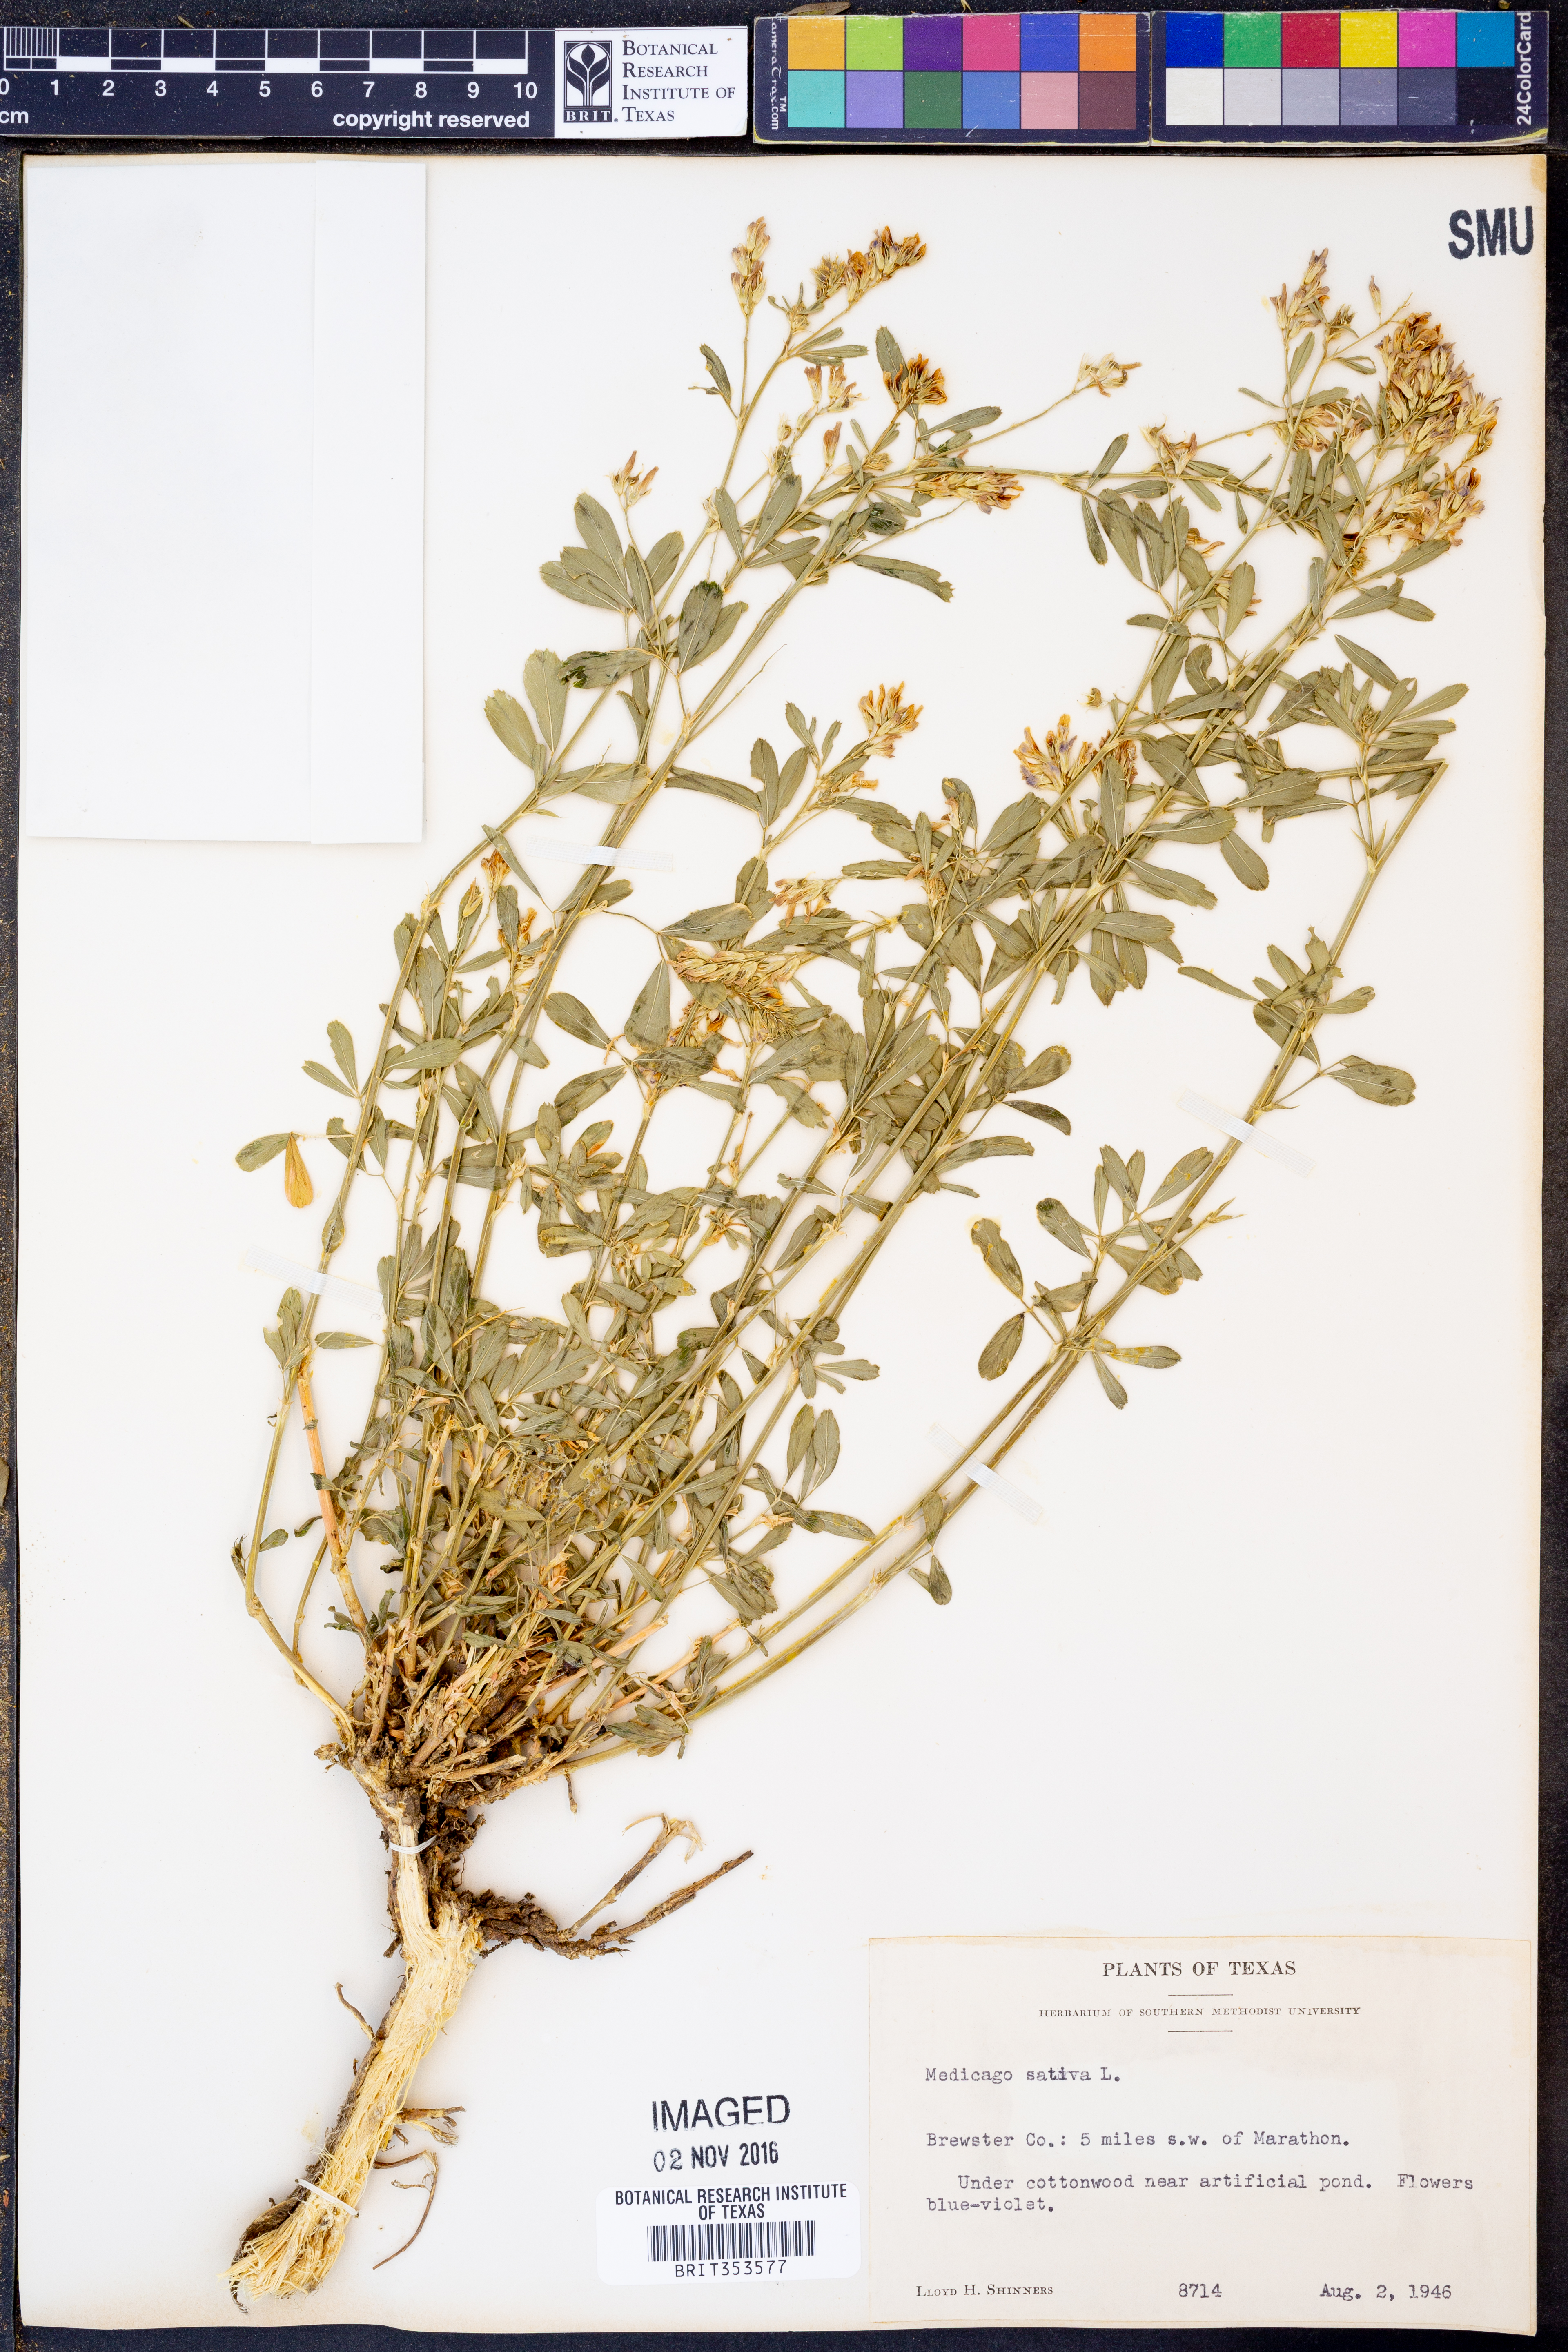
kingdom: Plantae
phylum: Tracheophyta
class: Magnoliopsida
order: Fabales
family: Fabaceae
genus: Medicago
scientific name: Medicago sativa
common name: Alfalfa
